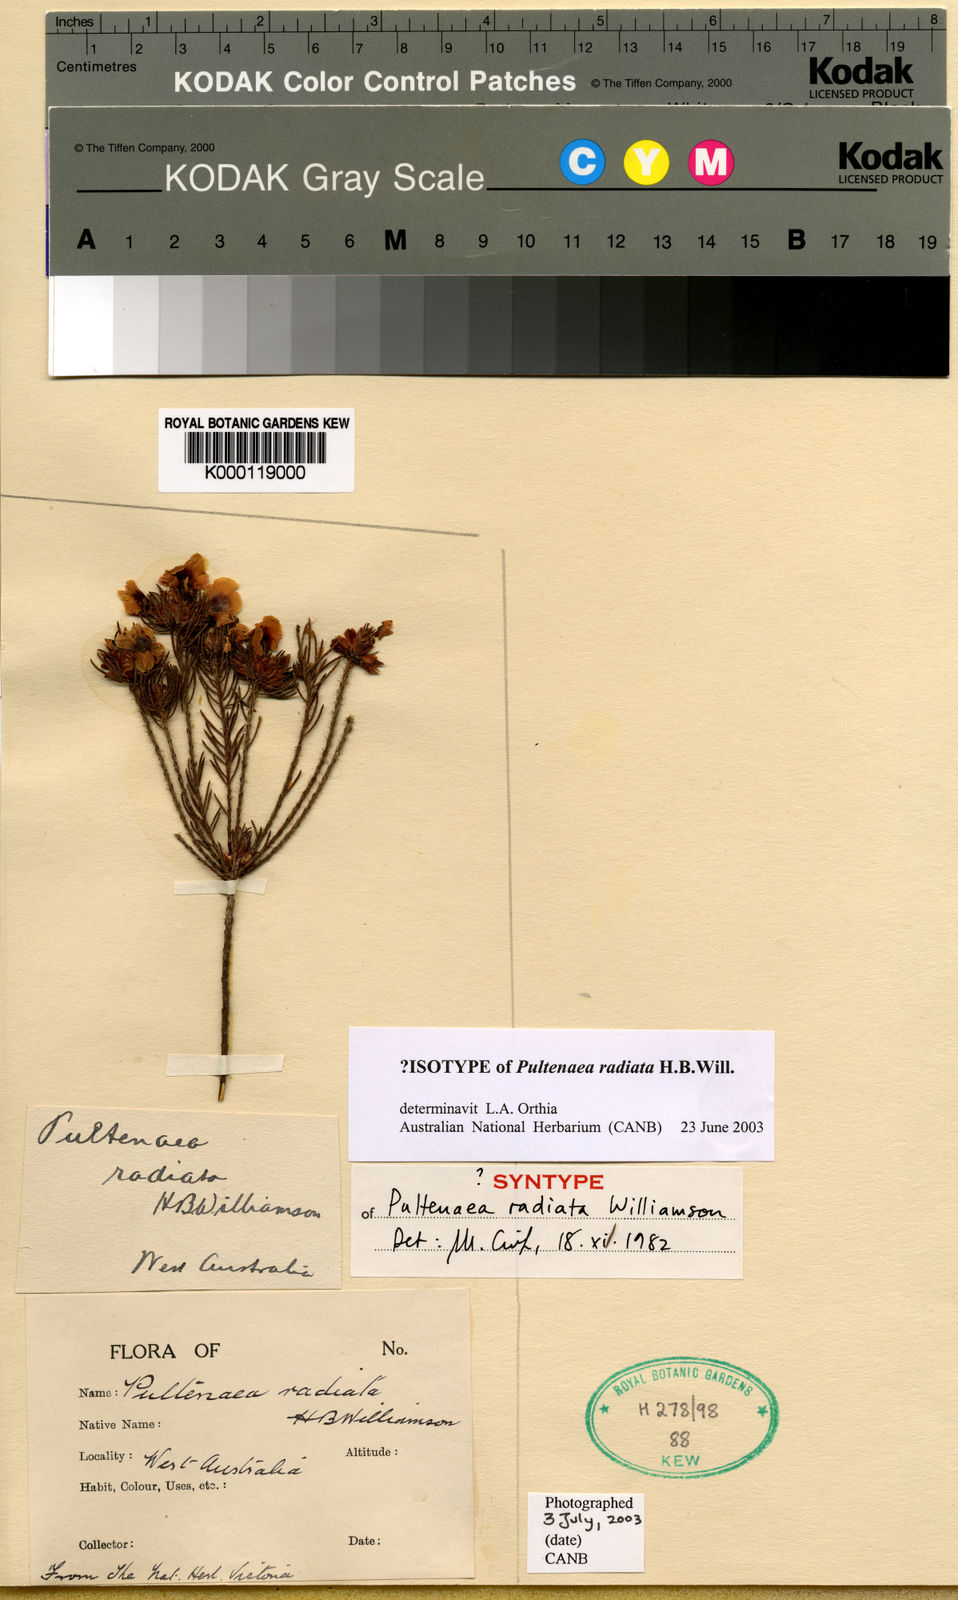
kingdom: Plantae
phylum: Tracheophyta
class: Magnoliopsida
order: Fabales
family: Fabaceae
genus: Pultenaea
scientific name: Pultenaea radiata
